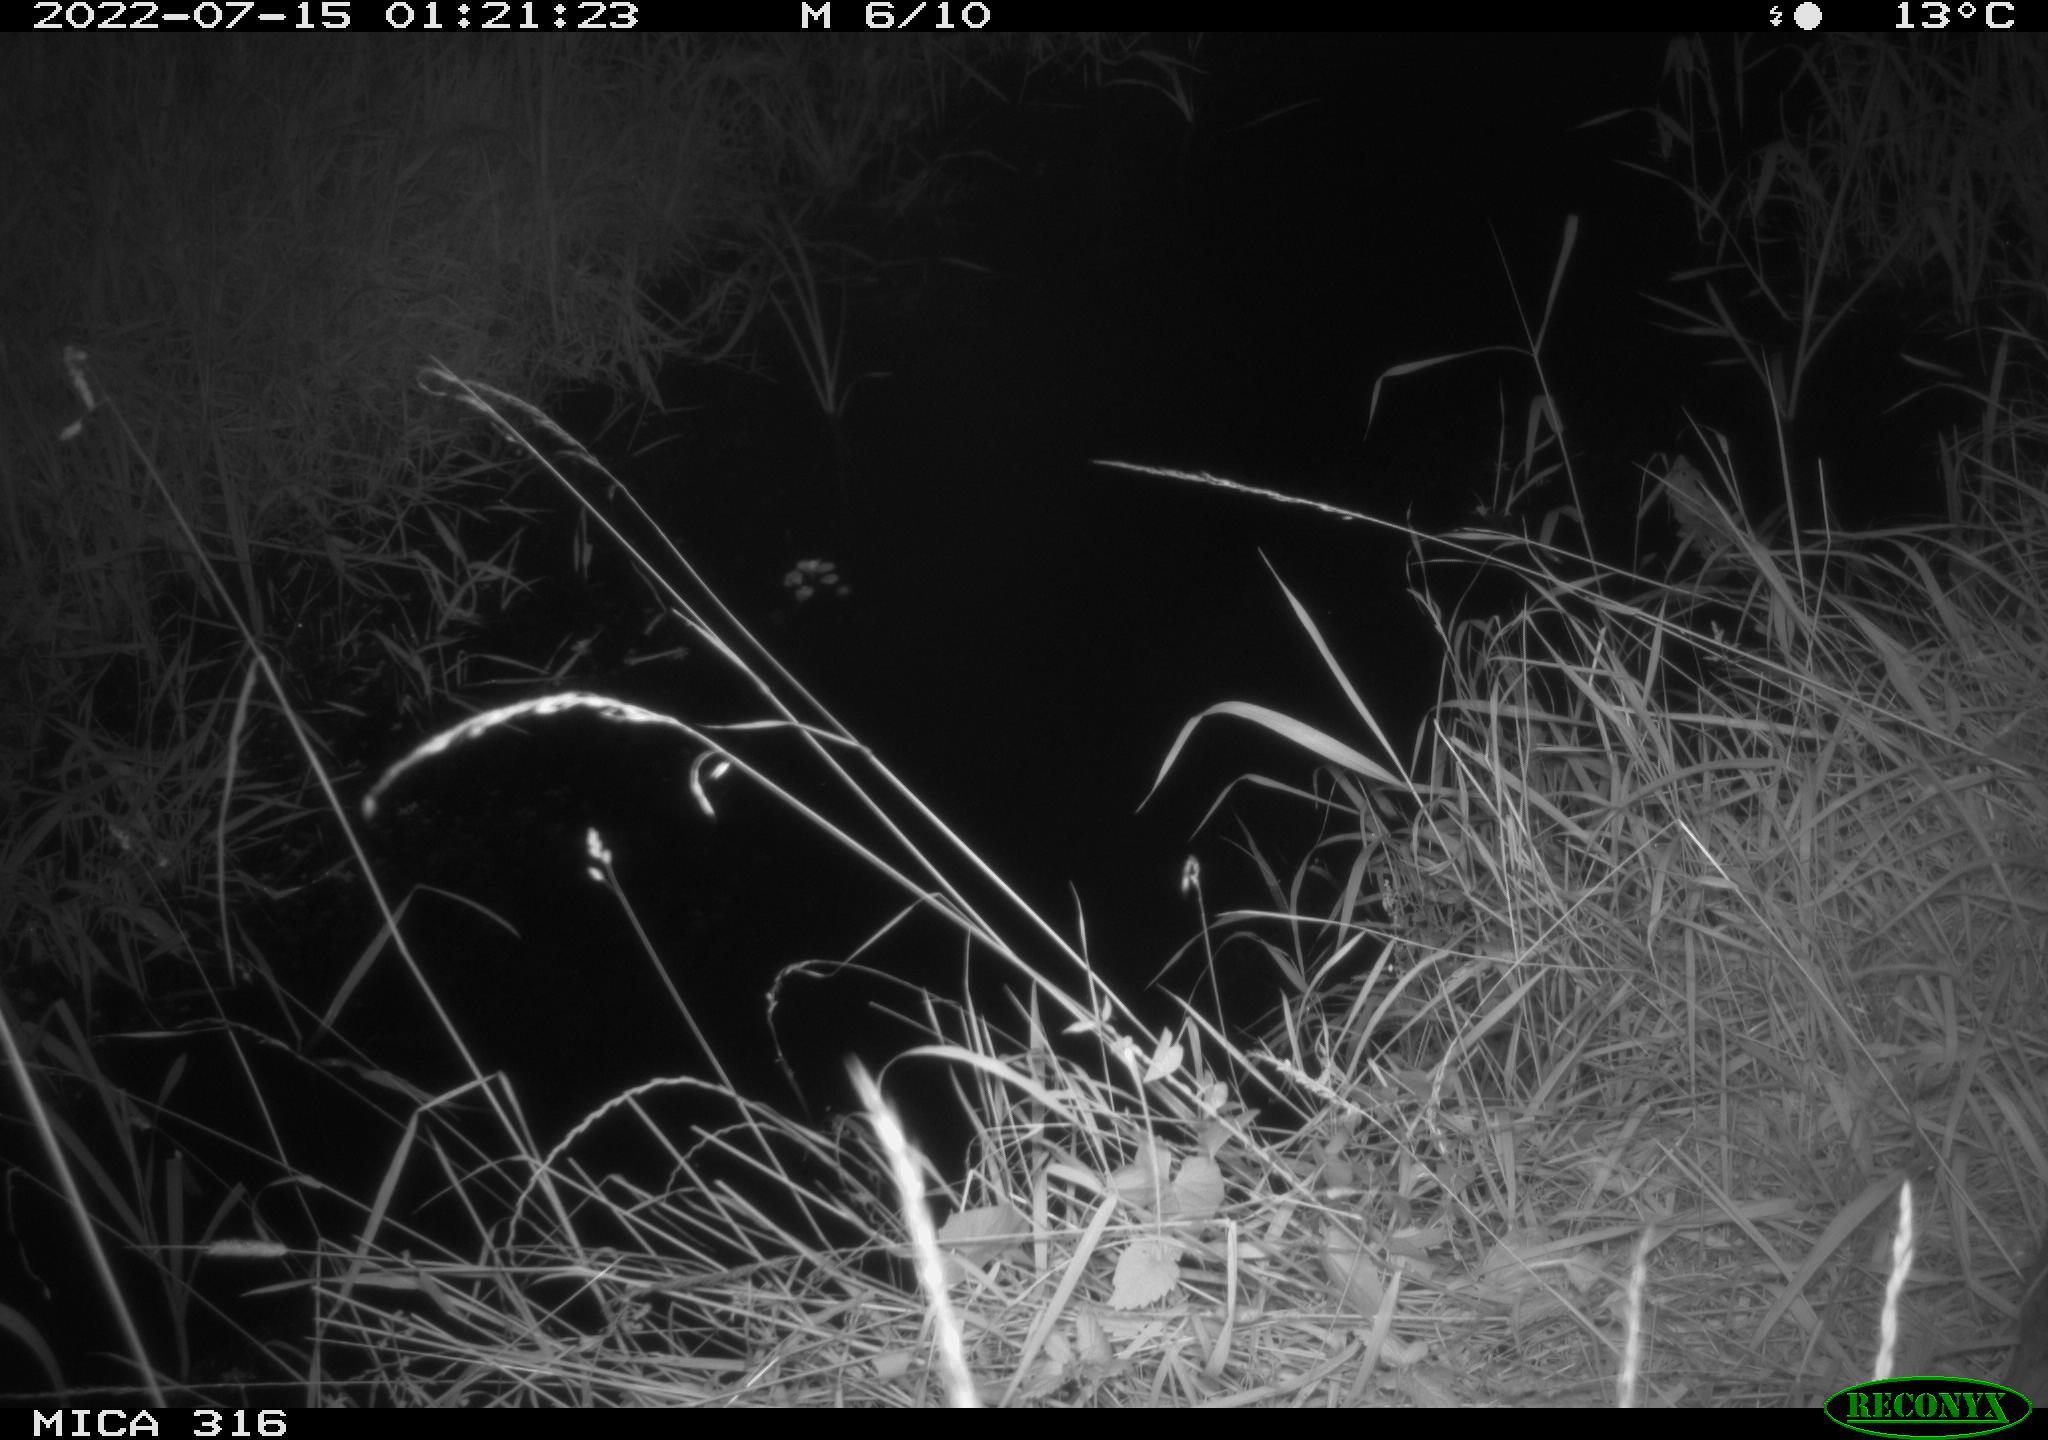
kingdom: Animalia
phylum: Chordata
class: Mammalia
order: Artiodactyla
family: Cervidae
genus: Capreolus
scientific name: Capreolus capreolus
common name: Western roe deer
